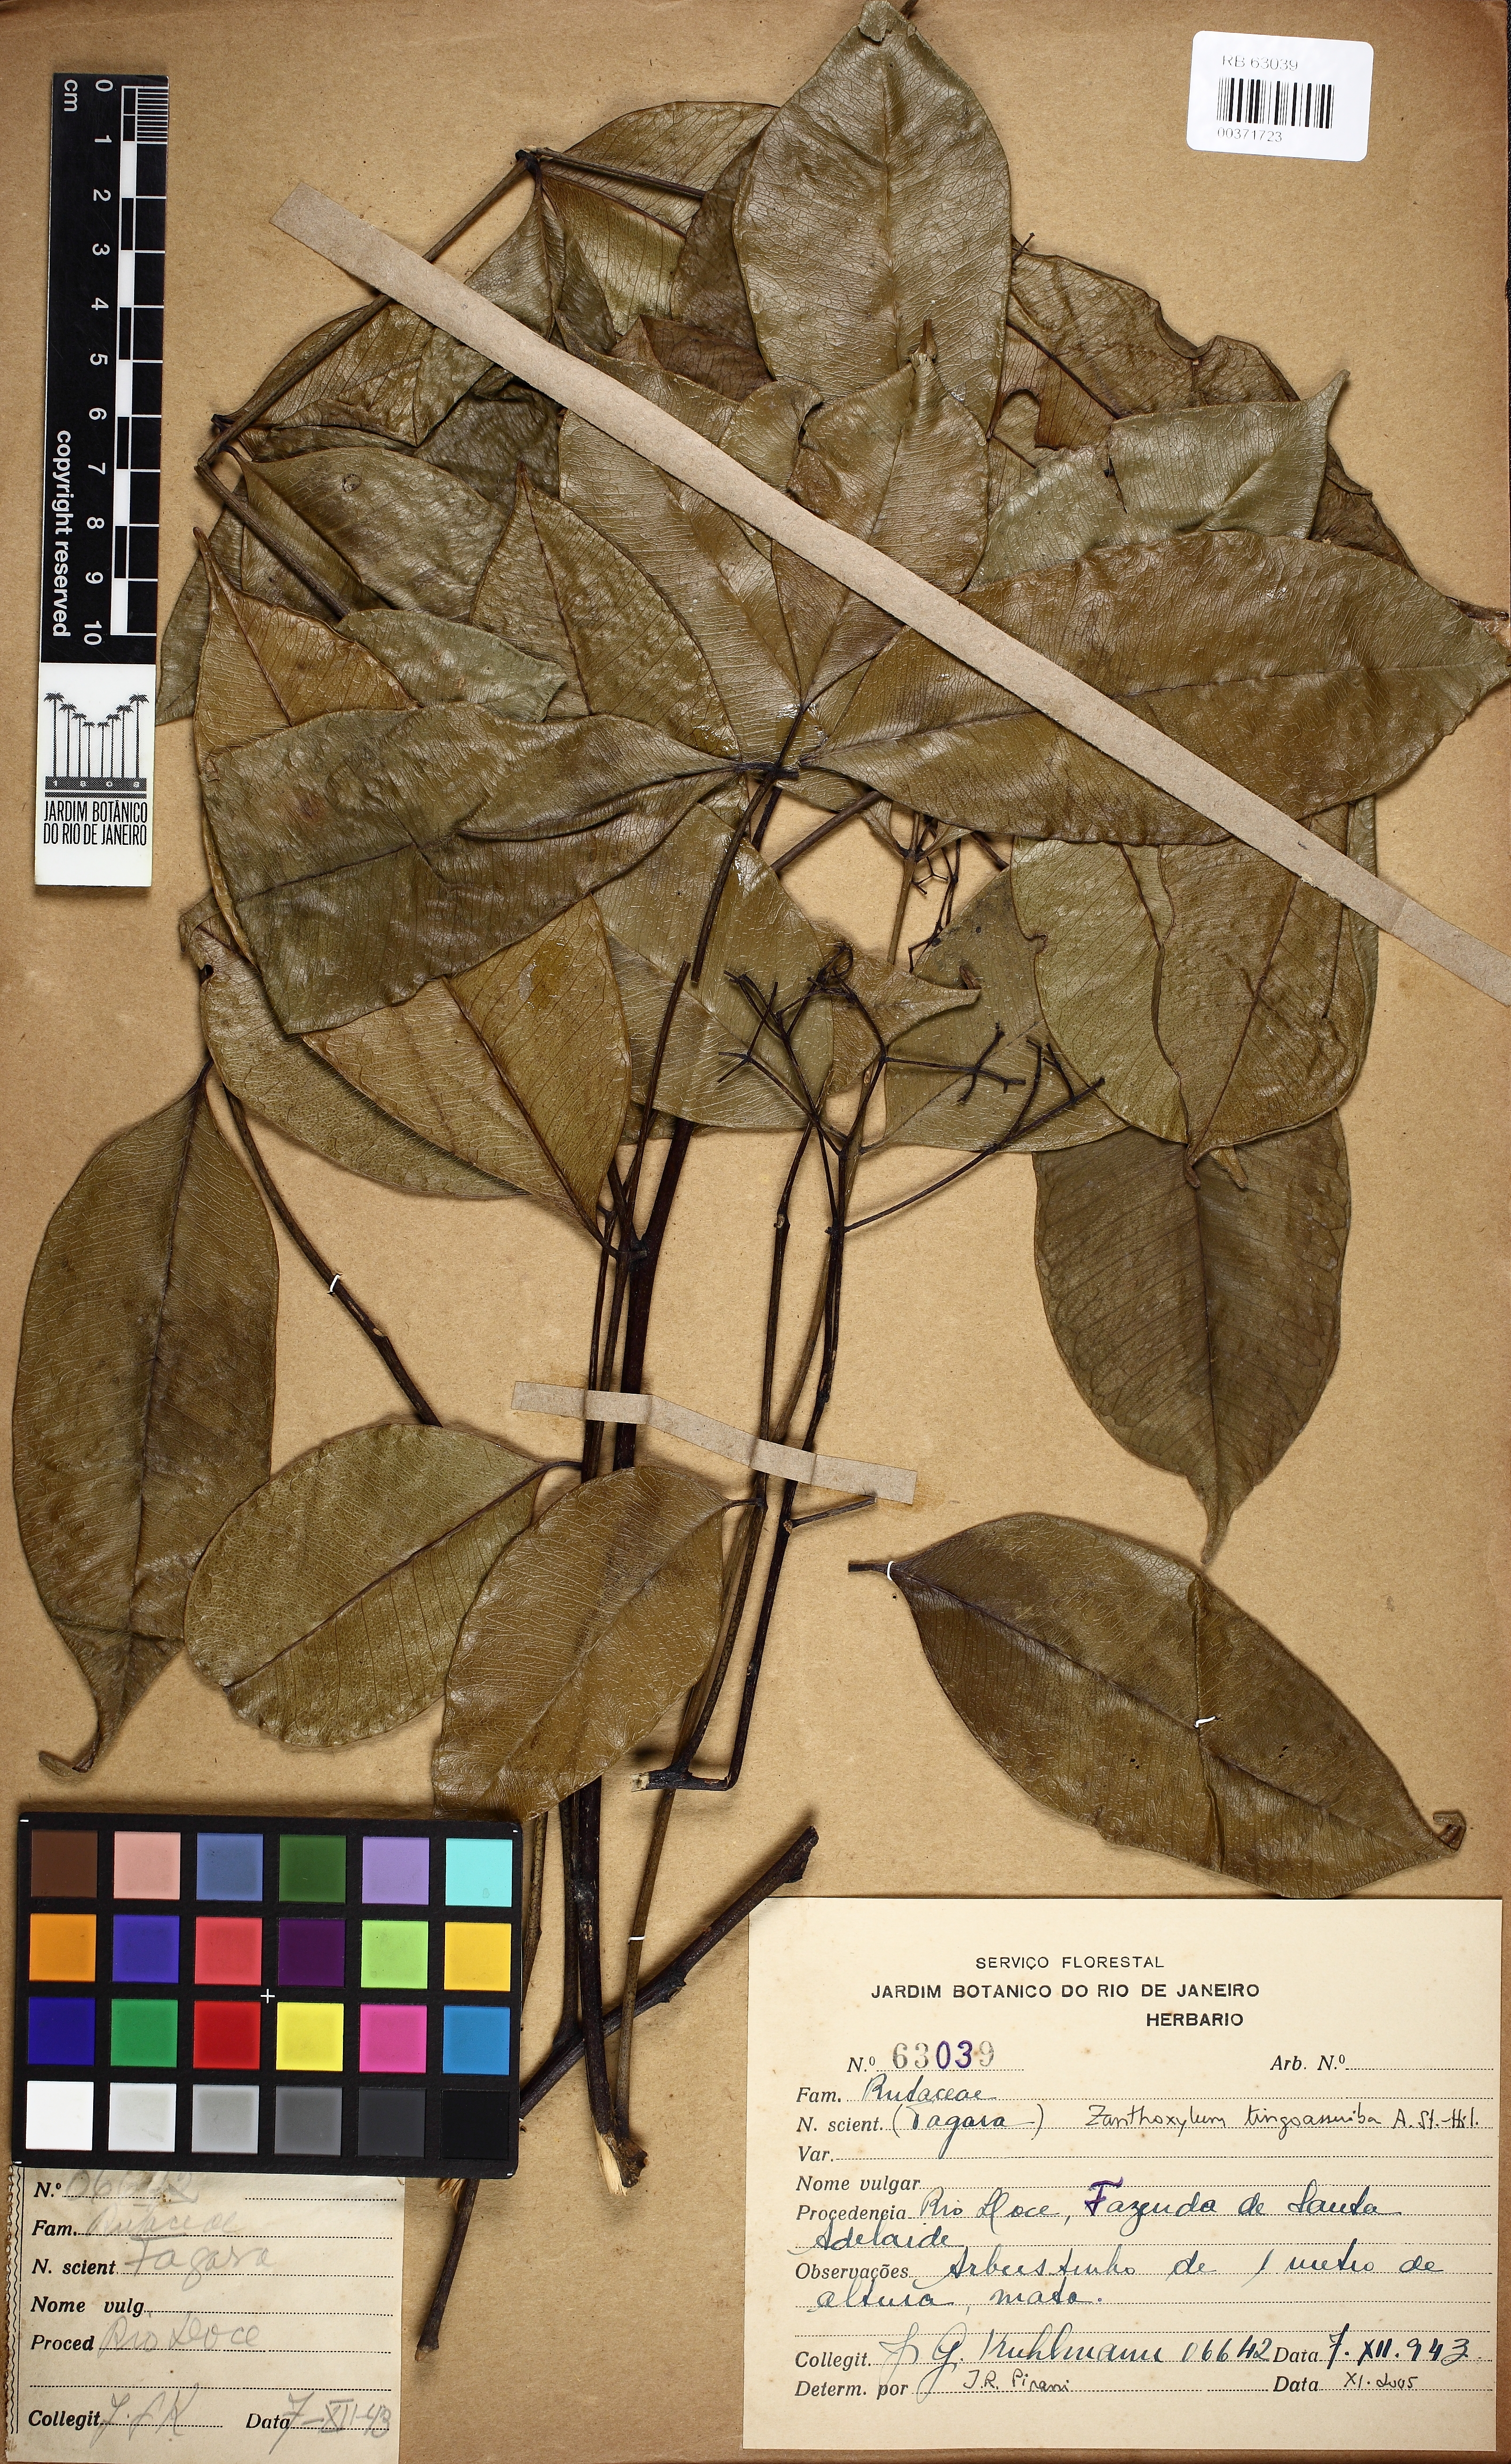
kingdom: Plantae
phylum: Tracheophyta
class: Magnoliopsida
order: Sapindales
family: Rutaceae
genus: Zanthoxylum
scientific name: Zanthoxylum tingoassuiba
